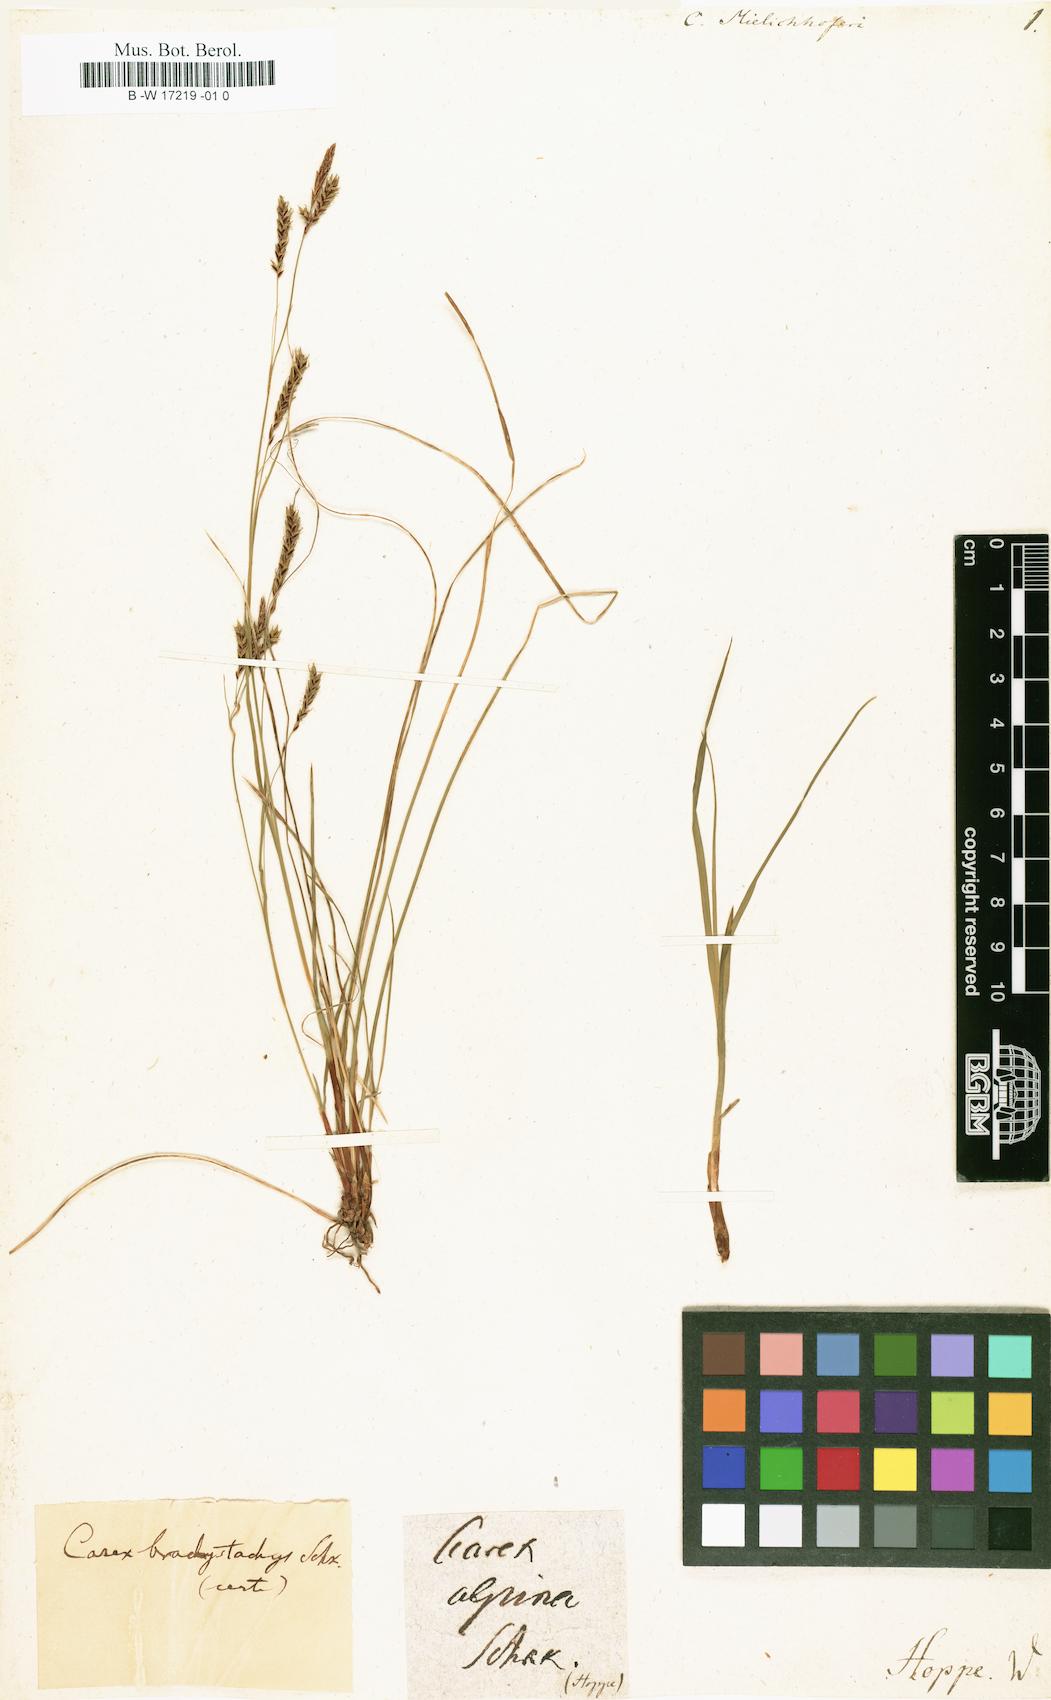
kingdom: Plantae
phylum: Tracheophyta
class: Liliopsida
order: Poales
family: Cyperaceae
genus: Carex
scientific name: Carex ferruginea
